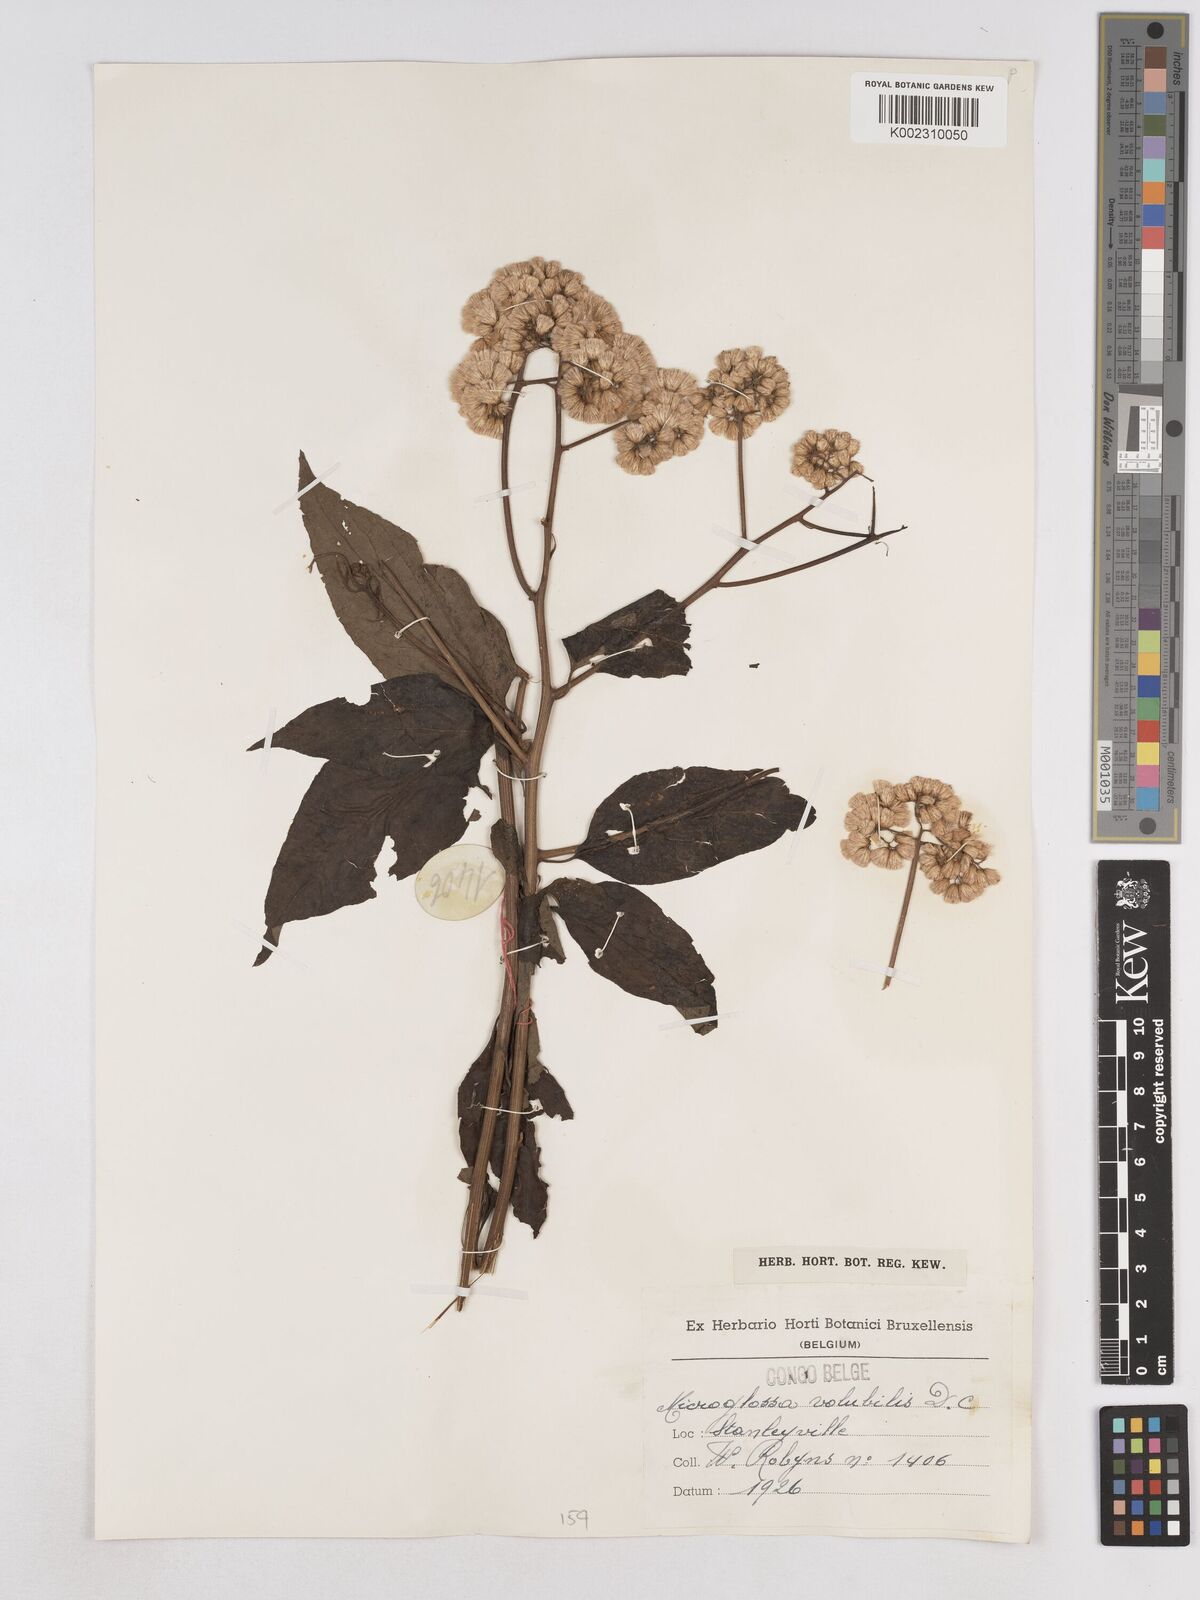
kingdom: Plantae
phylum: Tracheophyta
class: Magnoliopsida
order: Asterales
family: Asteraceae
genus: Microglossa
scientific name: Microglossa pyrifolia
